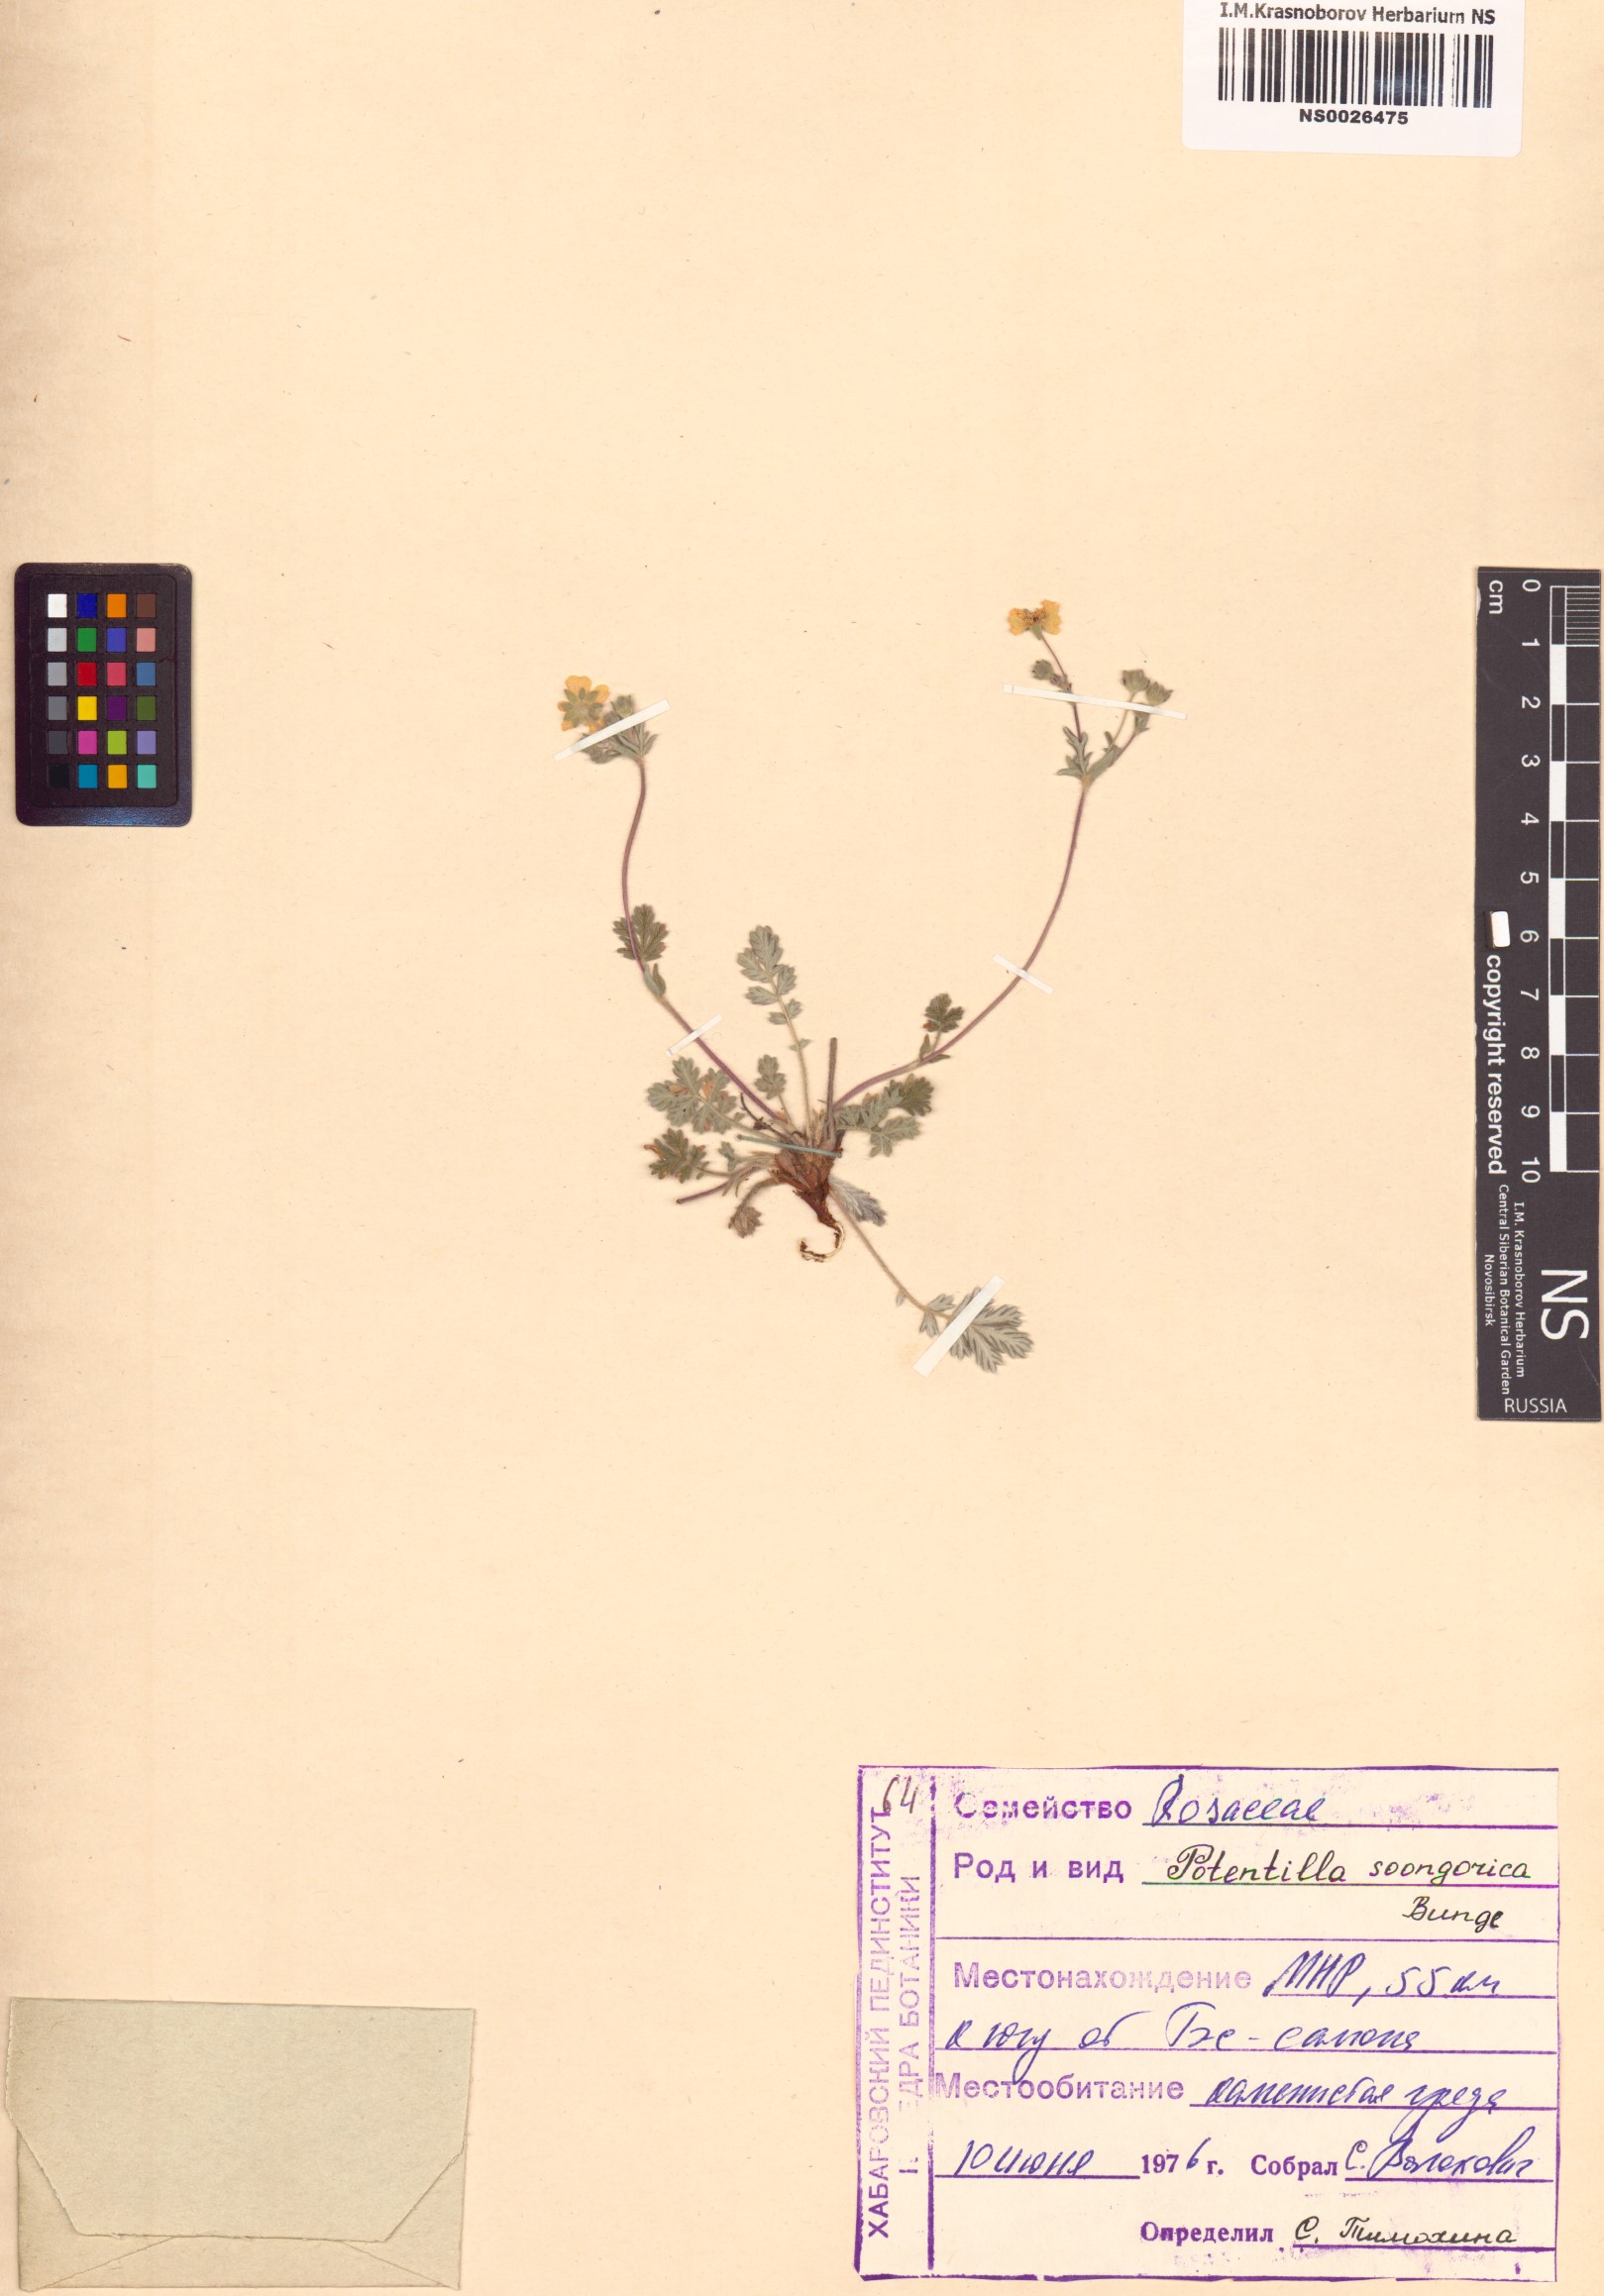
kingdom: Plantae
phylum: Tracheophyta
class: Magnoliopsida
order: Rosales
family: Rosaceae
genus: Potentilla
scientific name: Potentilla soongarica
